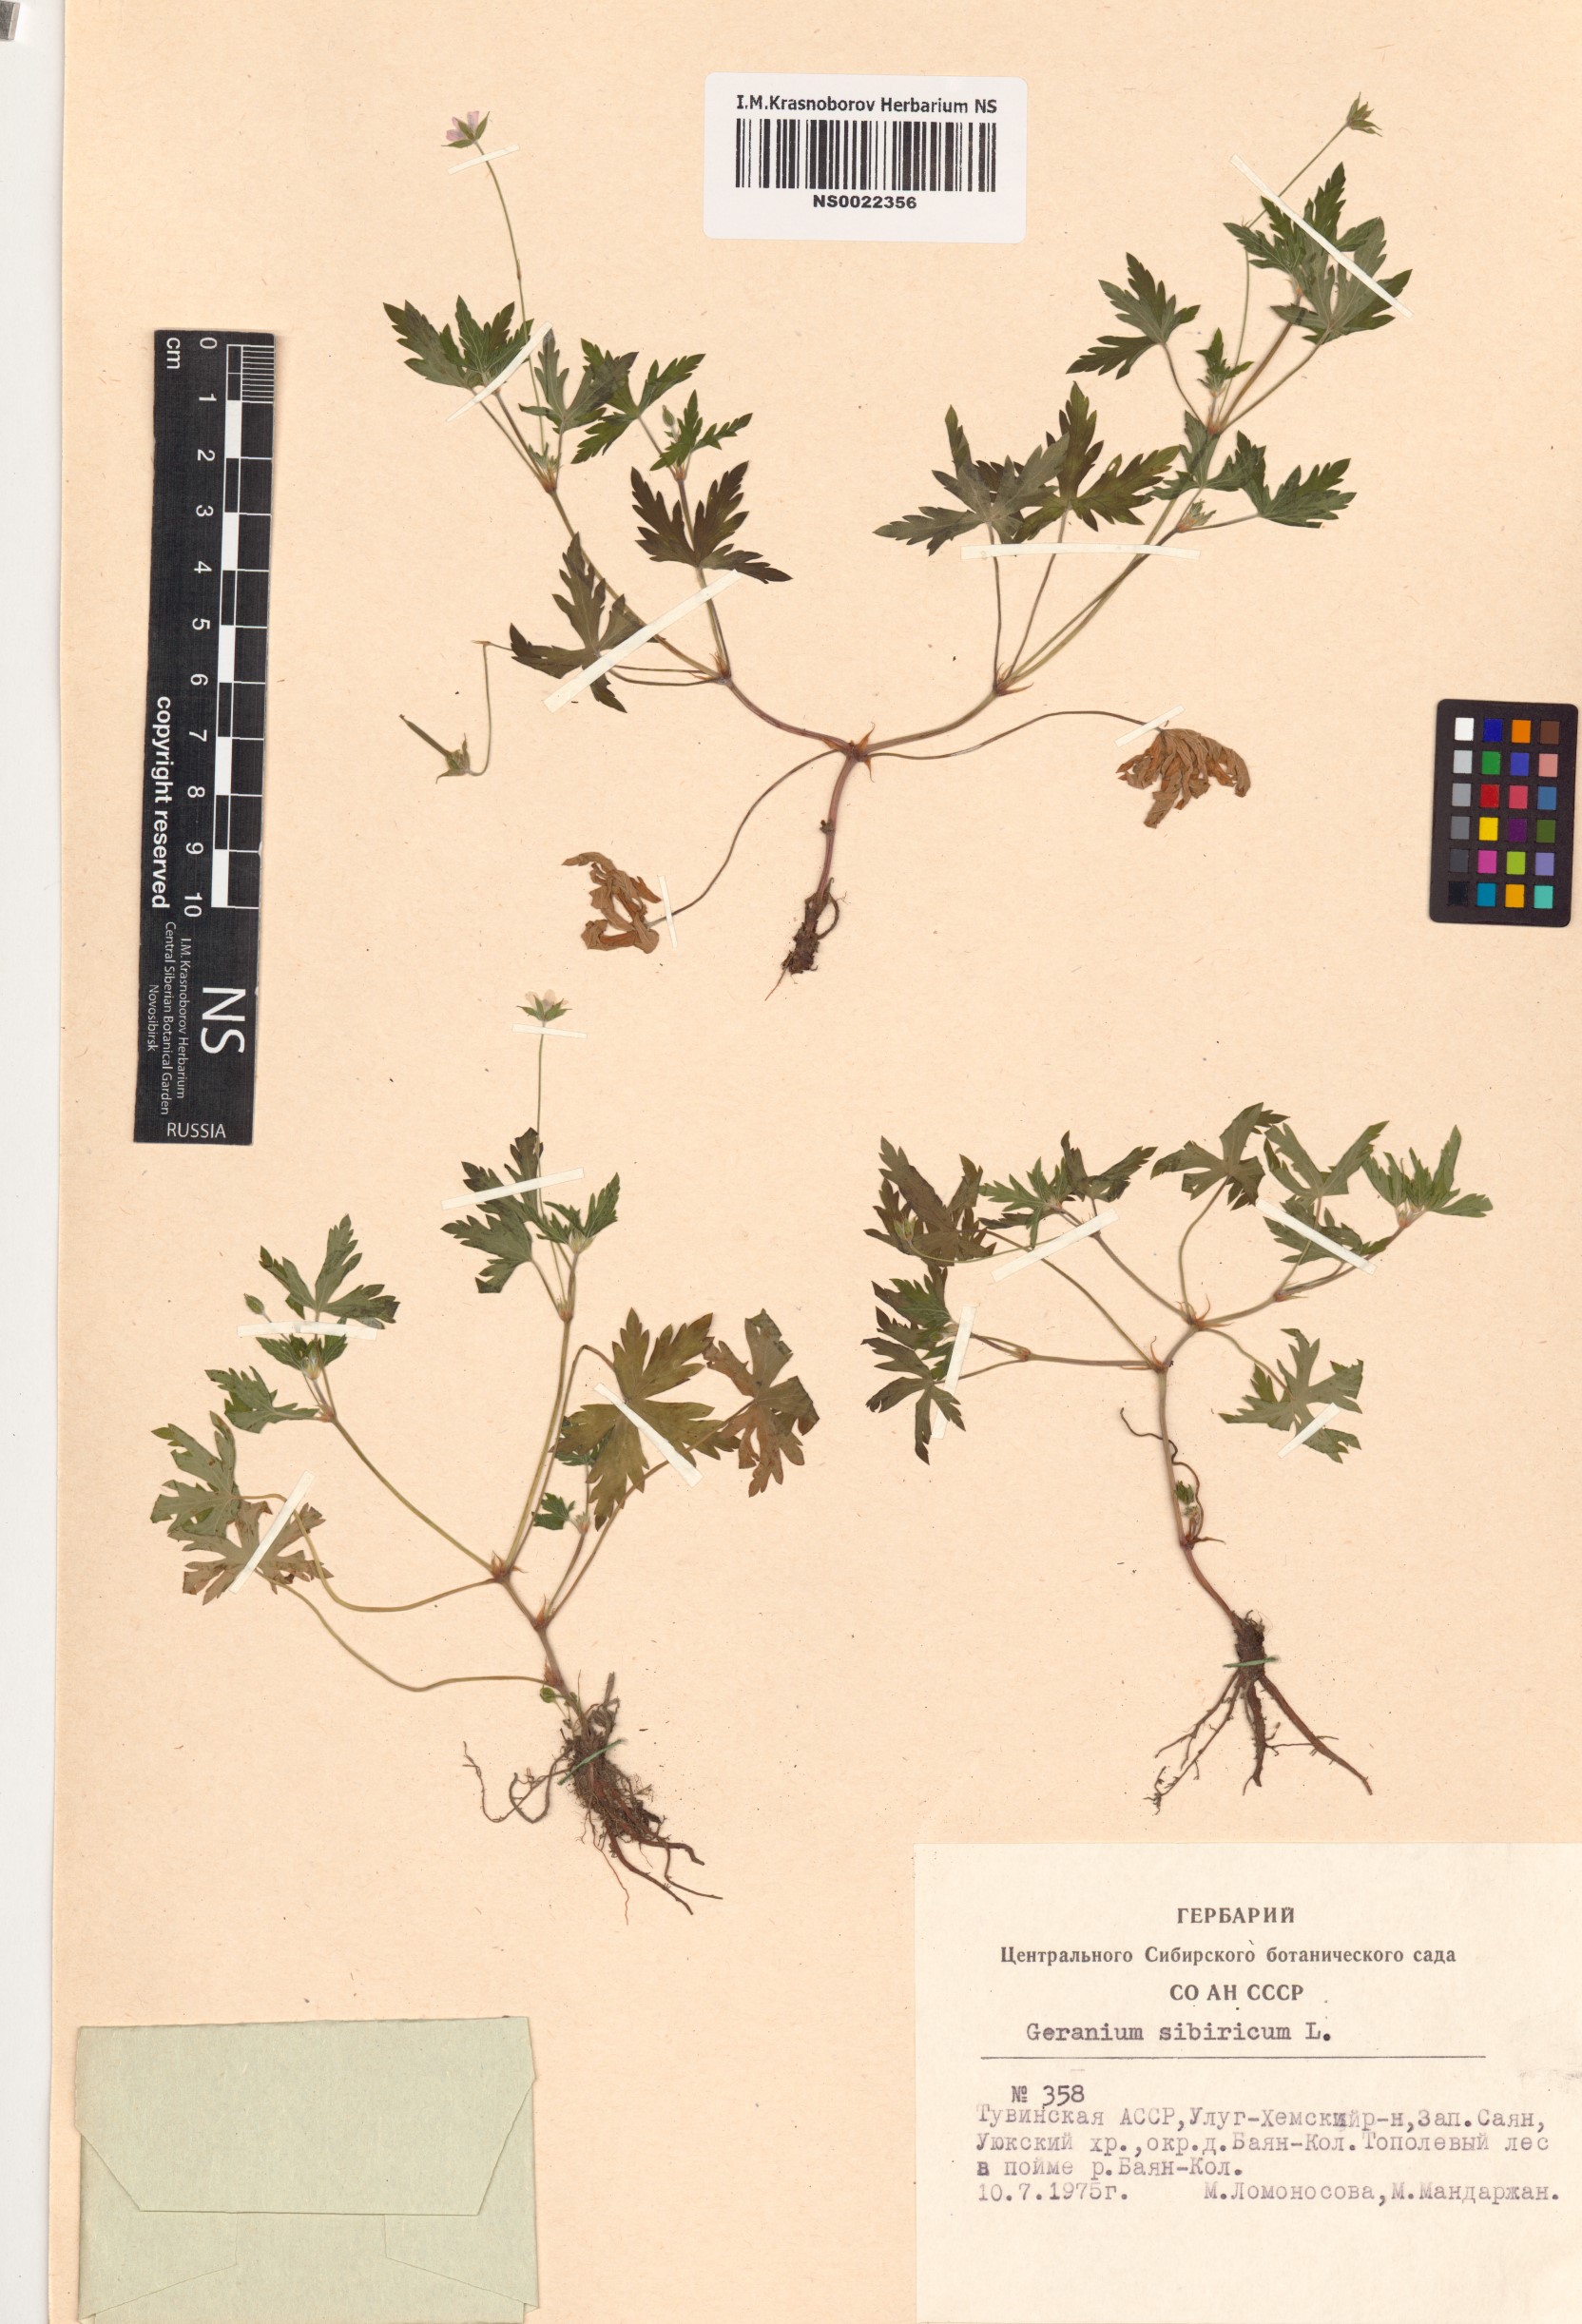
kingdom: Plantae
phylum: Tracheophyta
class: Magnoliopsida
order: Geraniales
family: Geraniaceae
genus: Geranium
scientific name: Geranium sibiricum
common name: Siberian crane's-bill
